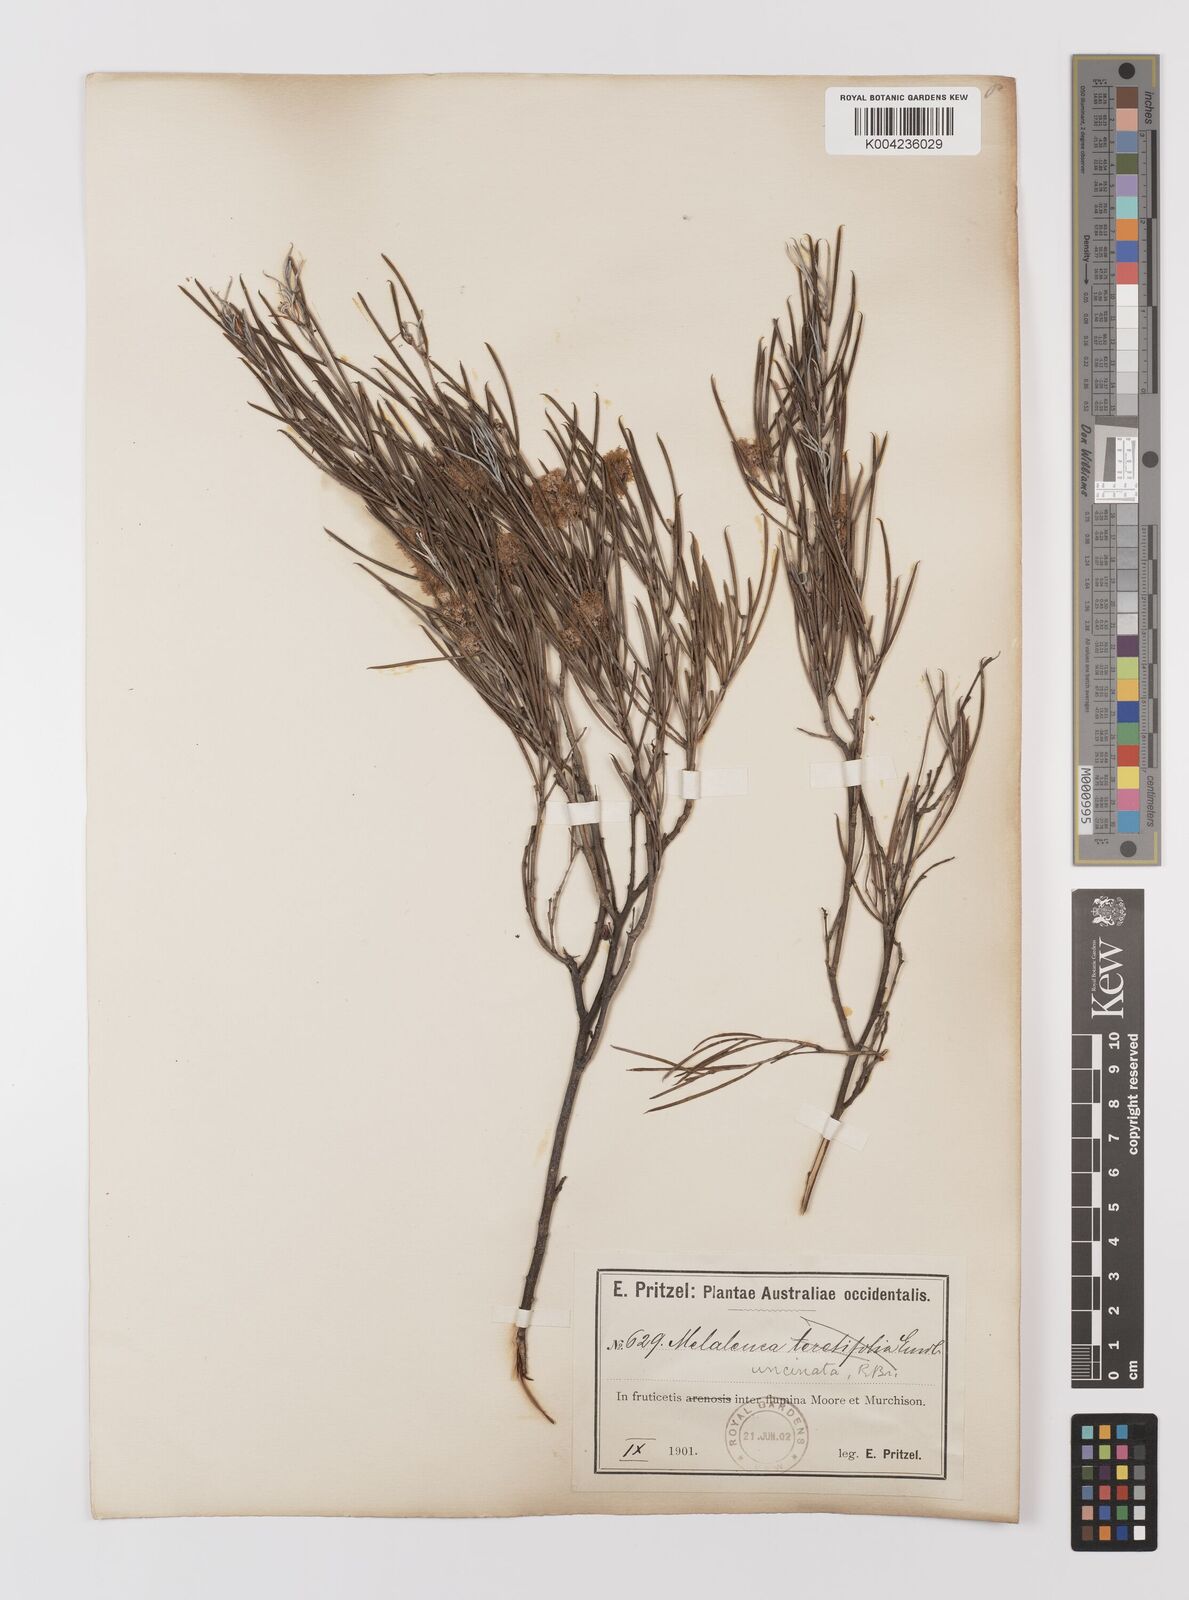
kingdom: Plantae
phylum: Tracheophyta
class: Magnoliopsida
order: Myrtales
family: Myrtaceae
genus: Melaleuca
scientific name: Melaleuca uncinata
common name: Broom honey myrtle
